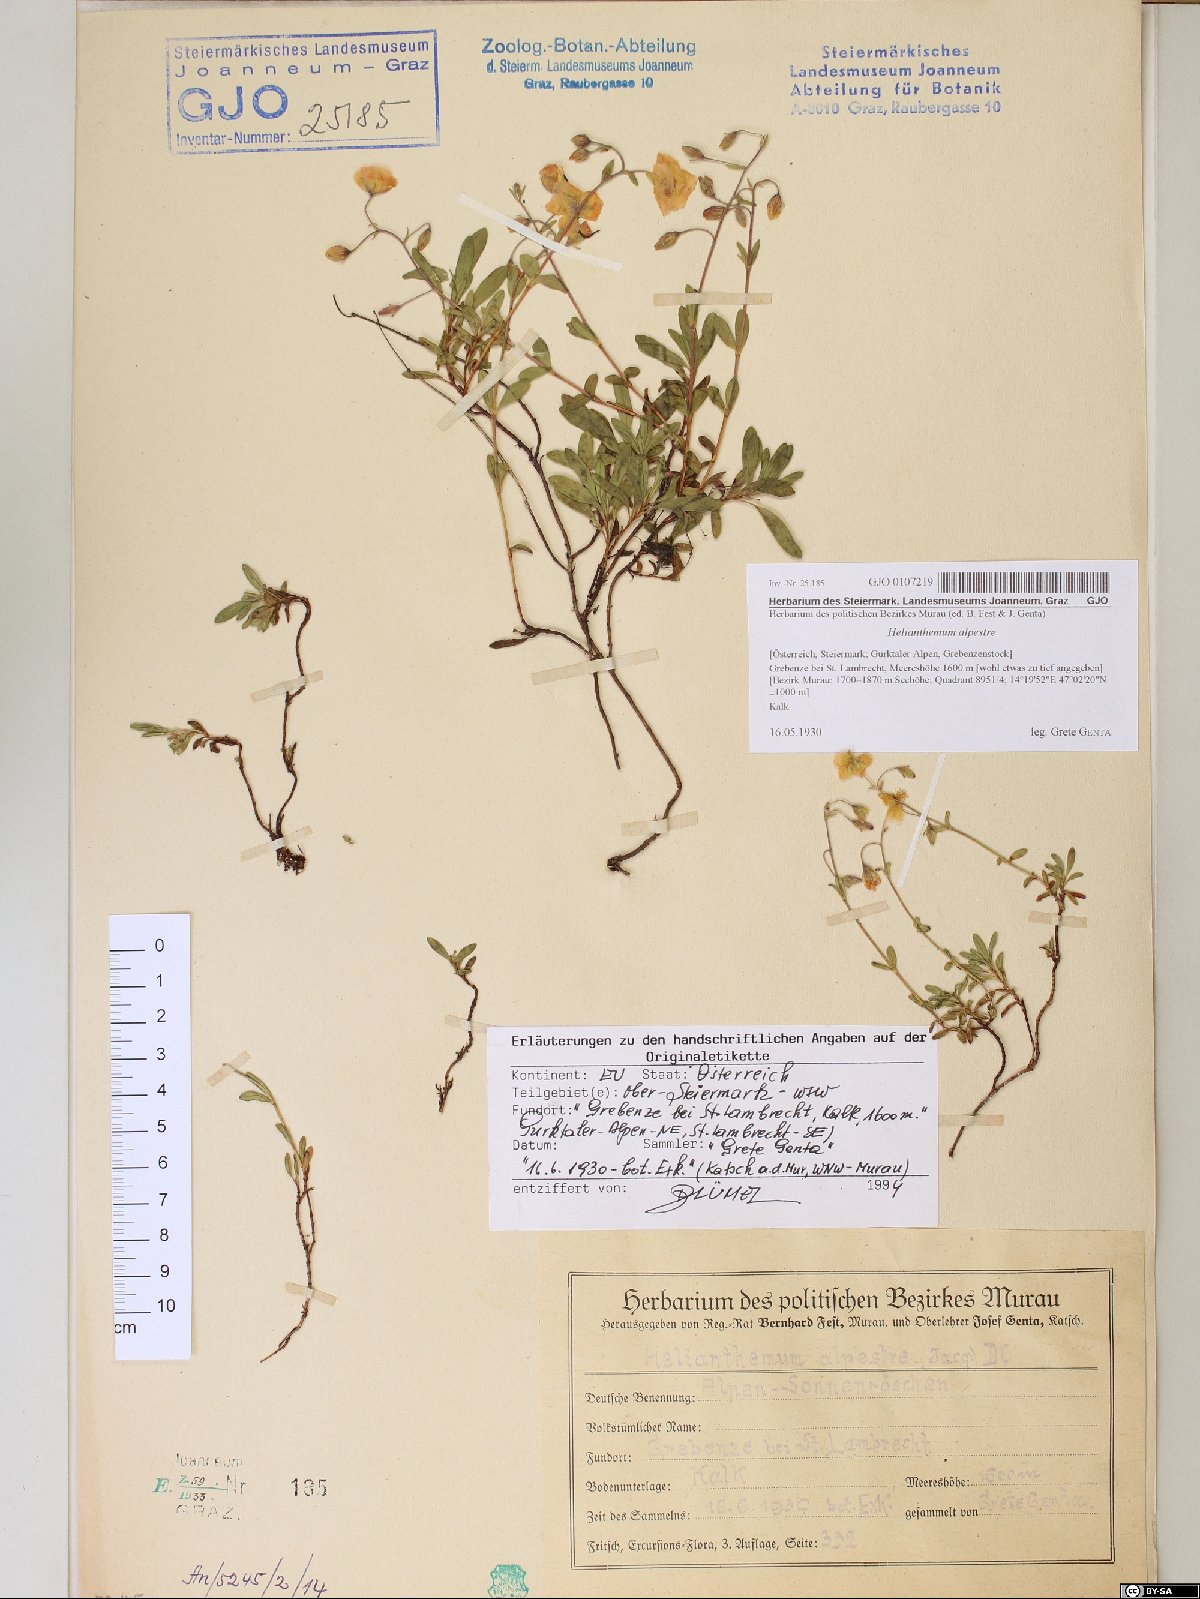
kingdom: Plantae
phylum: Tracheophyta
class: Magnoliopsida
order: Malvales
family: Cistaceae
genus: Helianthemum
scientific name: Helianthemum alpestre
